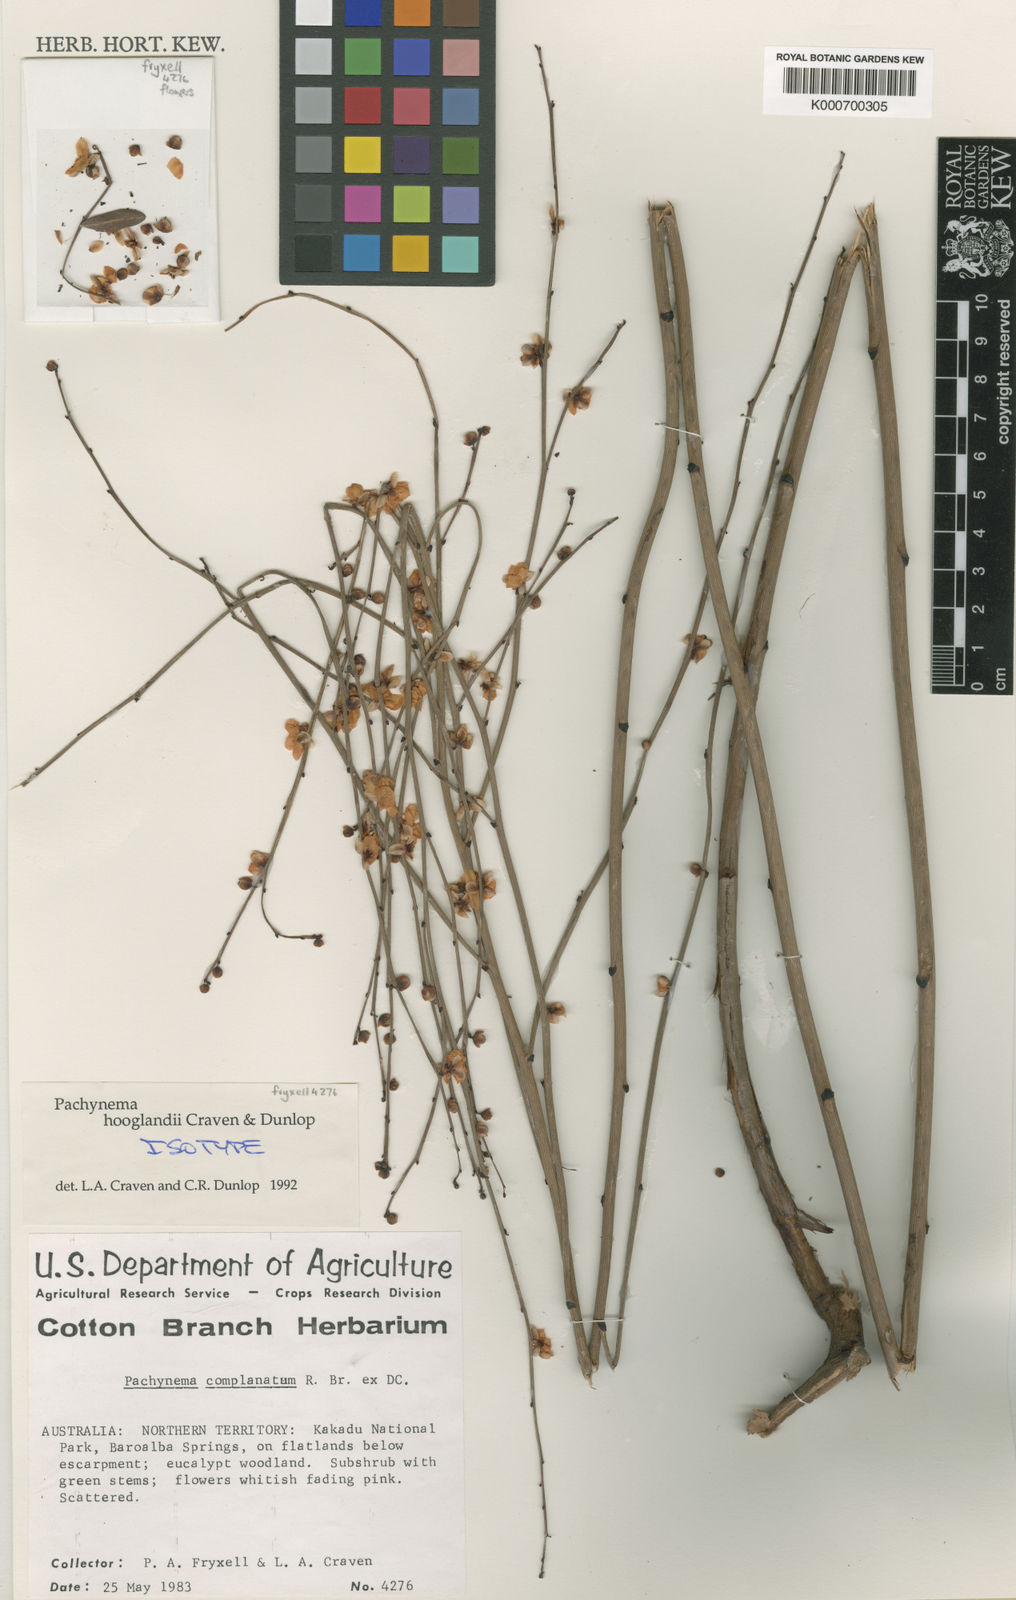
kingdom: Plantae
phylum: Tracheophyta
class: Magnoliopsida
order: Dilleniales
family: Dilleniaceae
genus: Hibbertia
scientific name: Hibbertia cravenii
